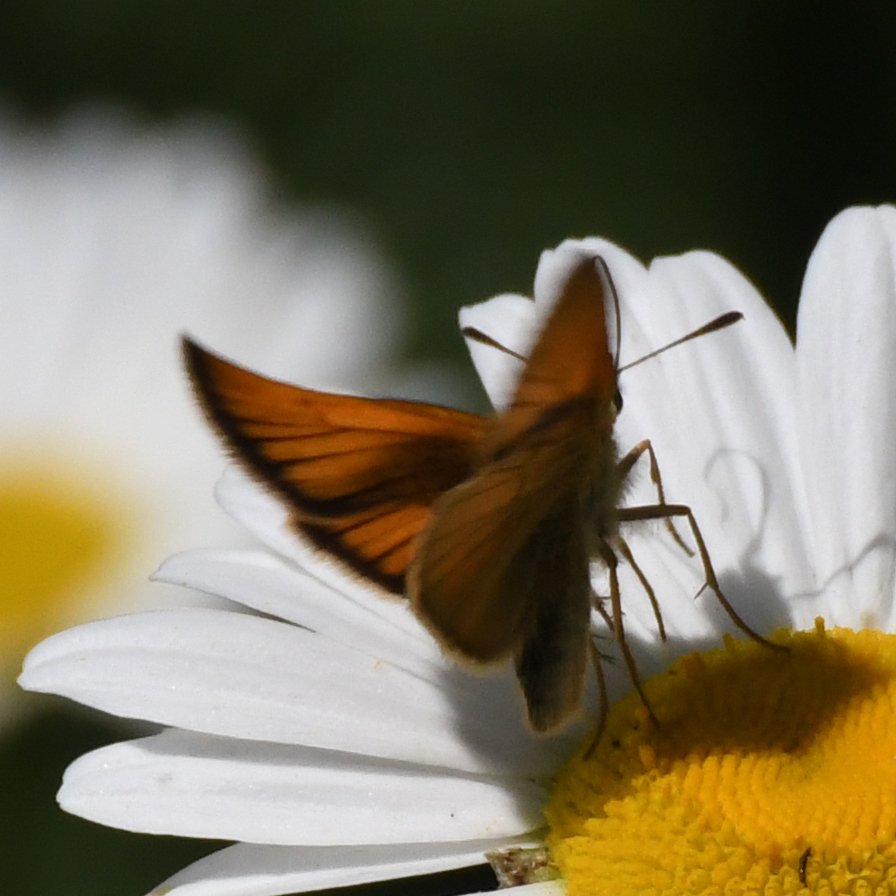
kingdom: Animalia
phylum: Arthropoda
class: Insecta
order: Lepidoptera
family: Hesperiidae
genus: Thymelicus
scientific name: Thymelicus lineola
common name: European Skipper
